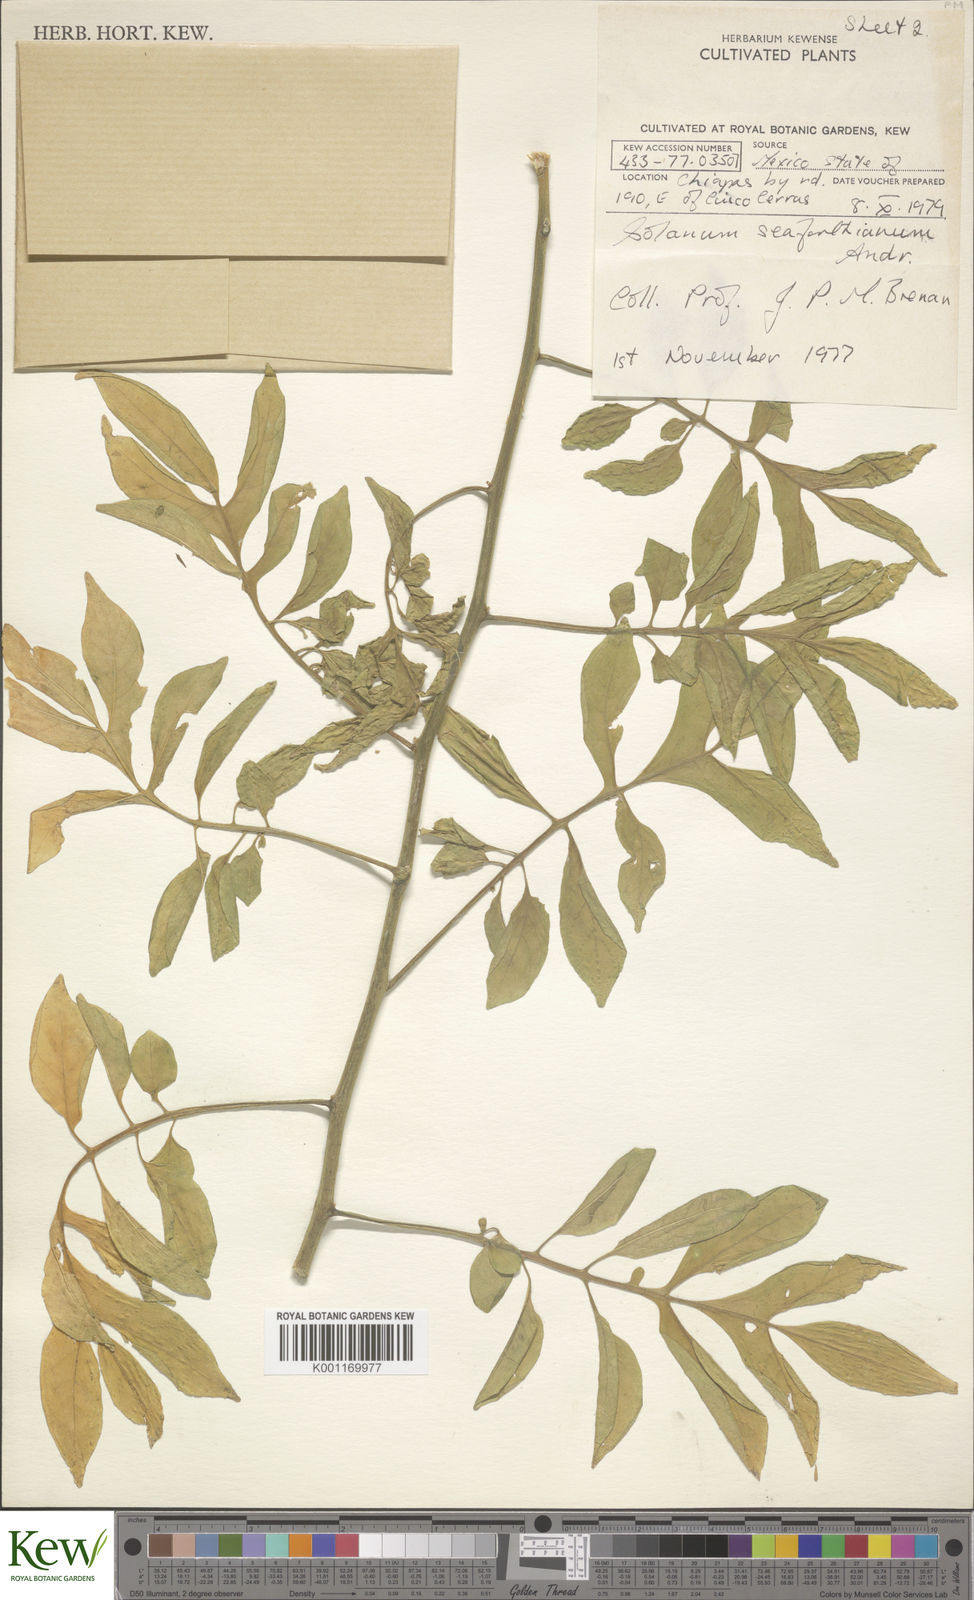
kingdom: Plantae
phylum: Tracheophyta
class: Magnoliopsida
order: Solanales
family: Solanaceae
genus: Solanum
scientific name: Solanum seaforthianum
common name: Brazilian nightshade
